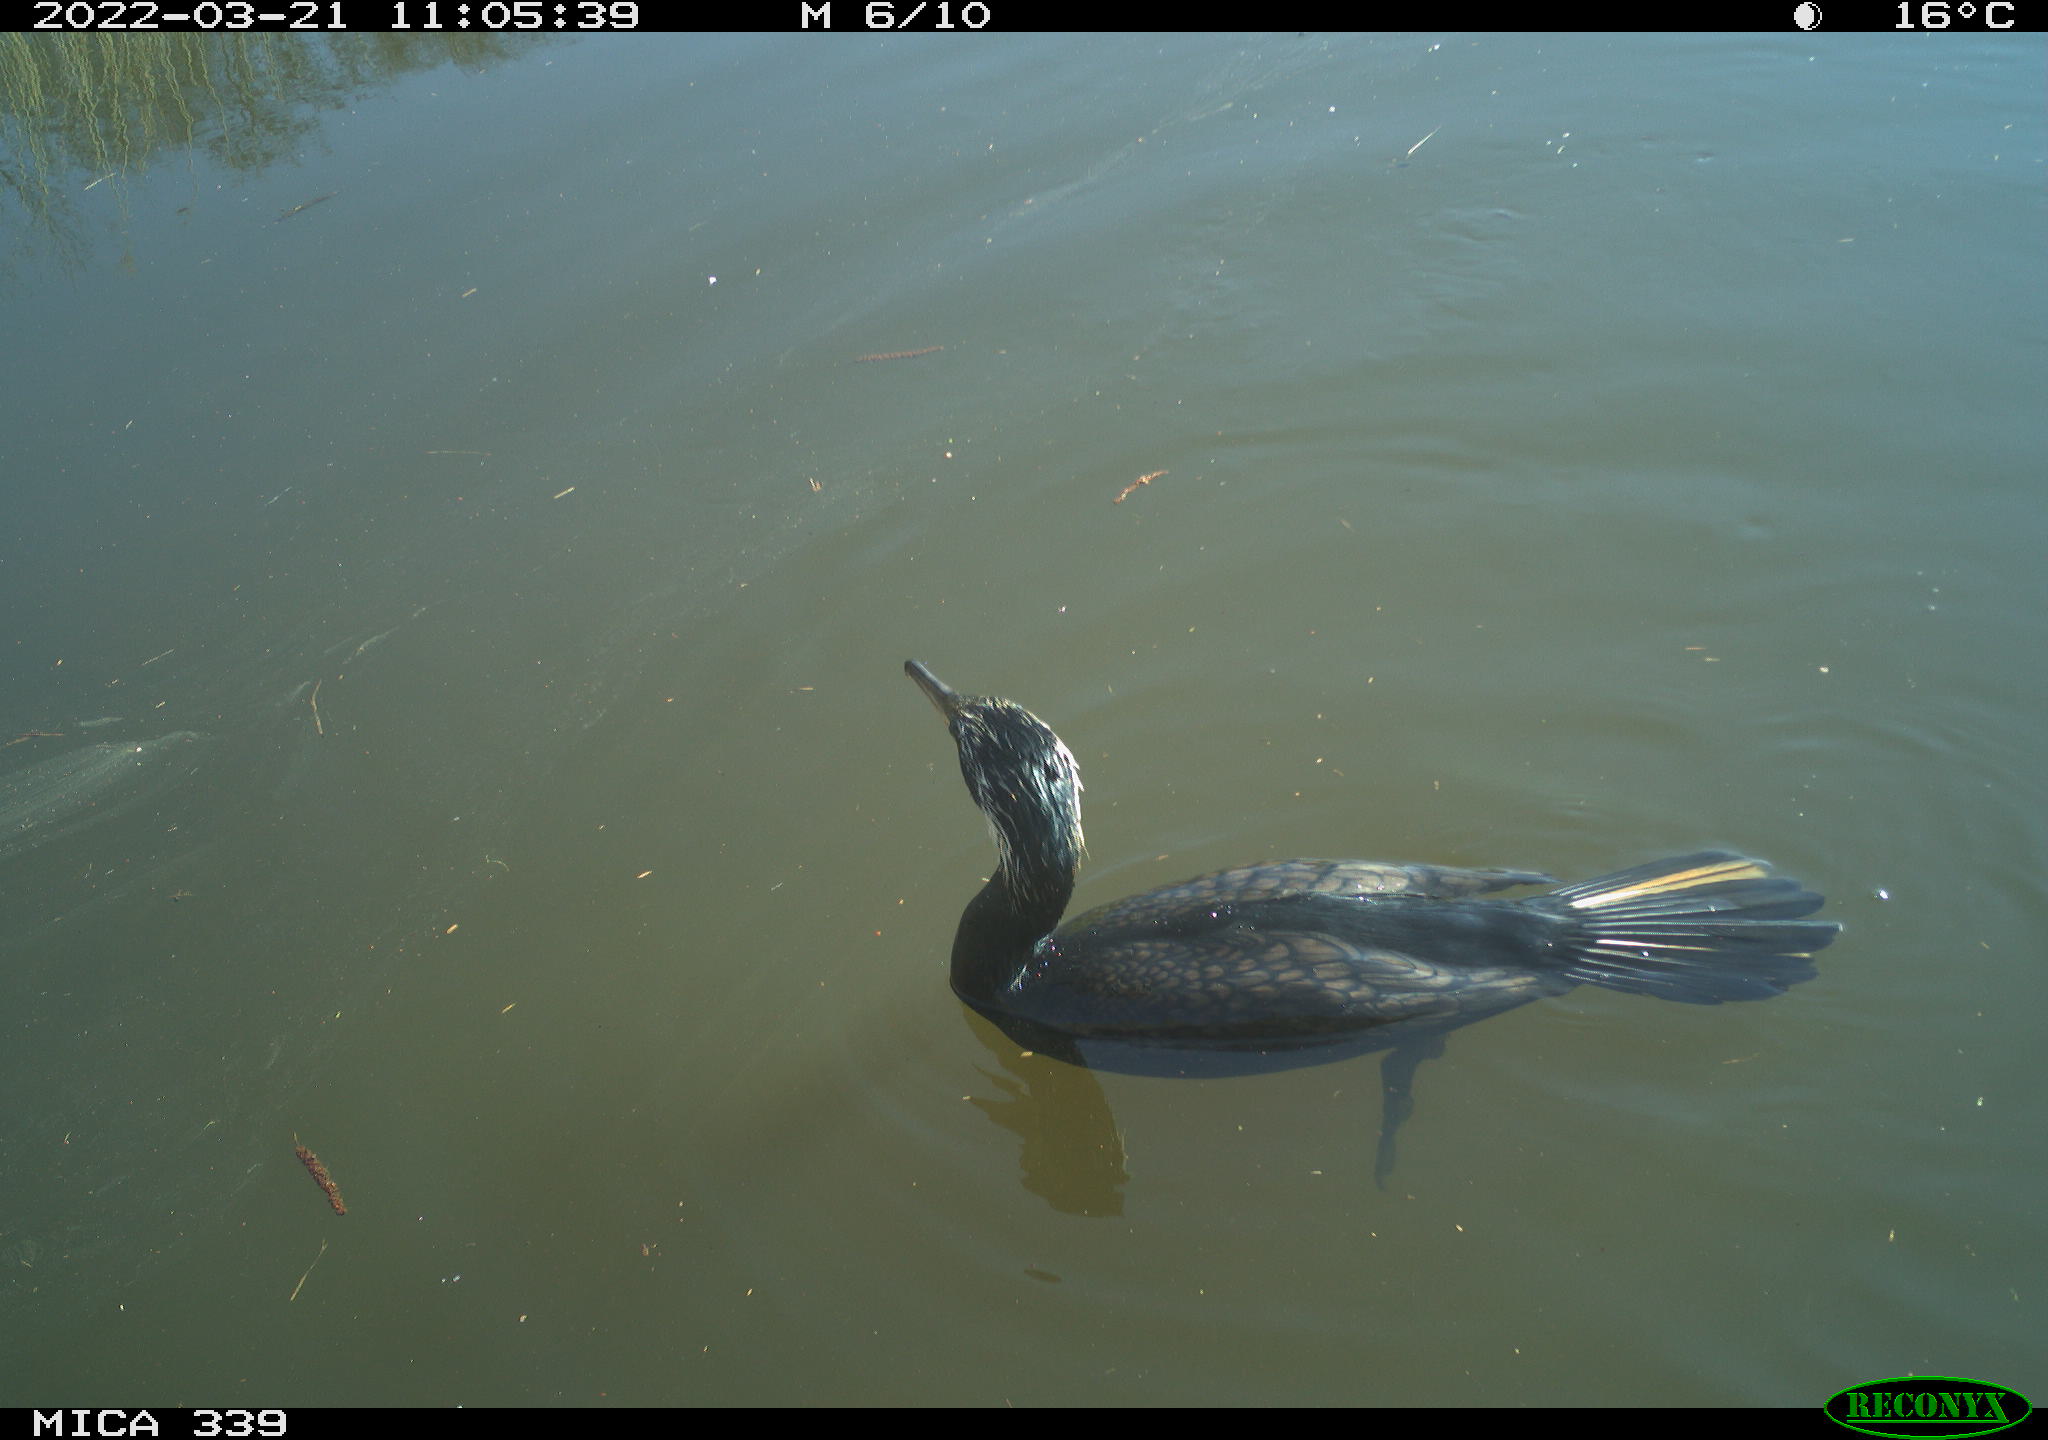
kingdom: Animalia
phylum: Chordata
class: Aves
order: Suliformes
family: Phalacrocoracidae
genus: Phalacrocorax
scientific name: Phalacrocorax carbo
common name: Great cormorant
